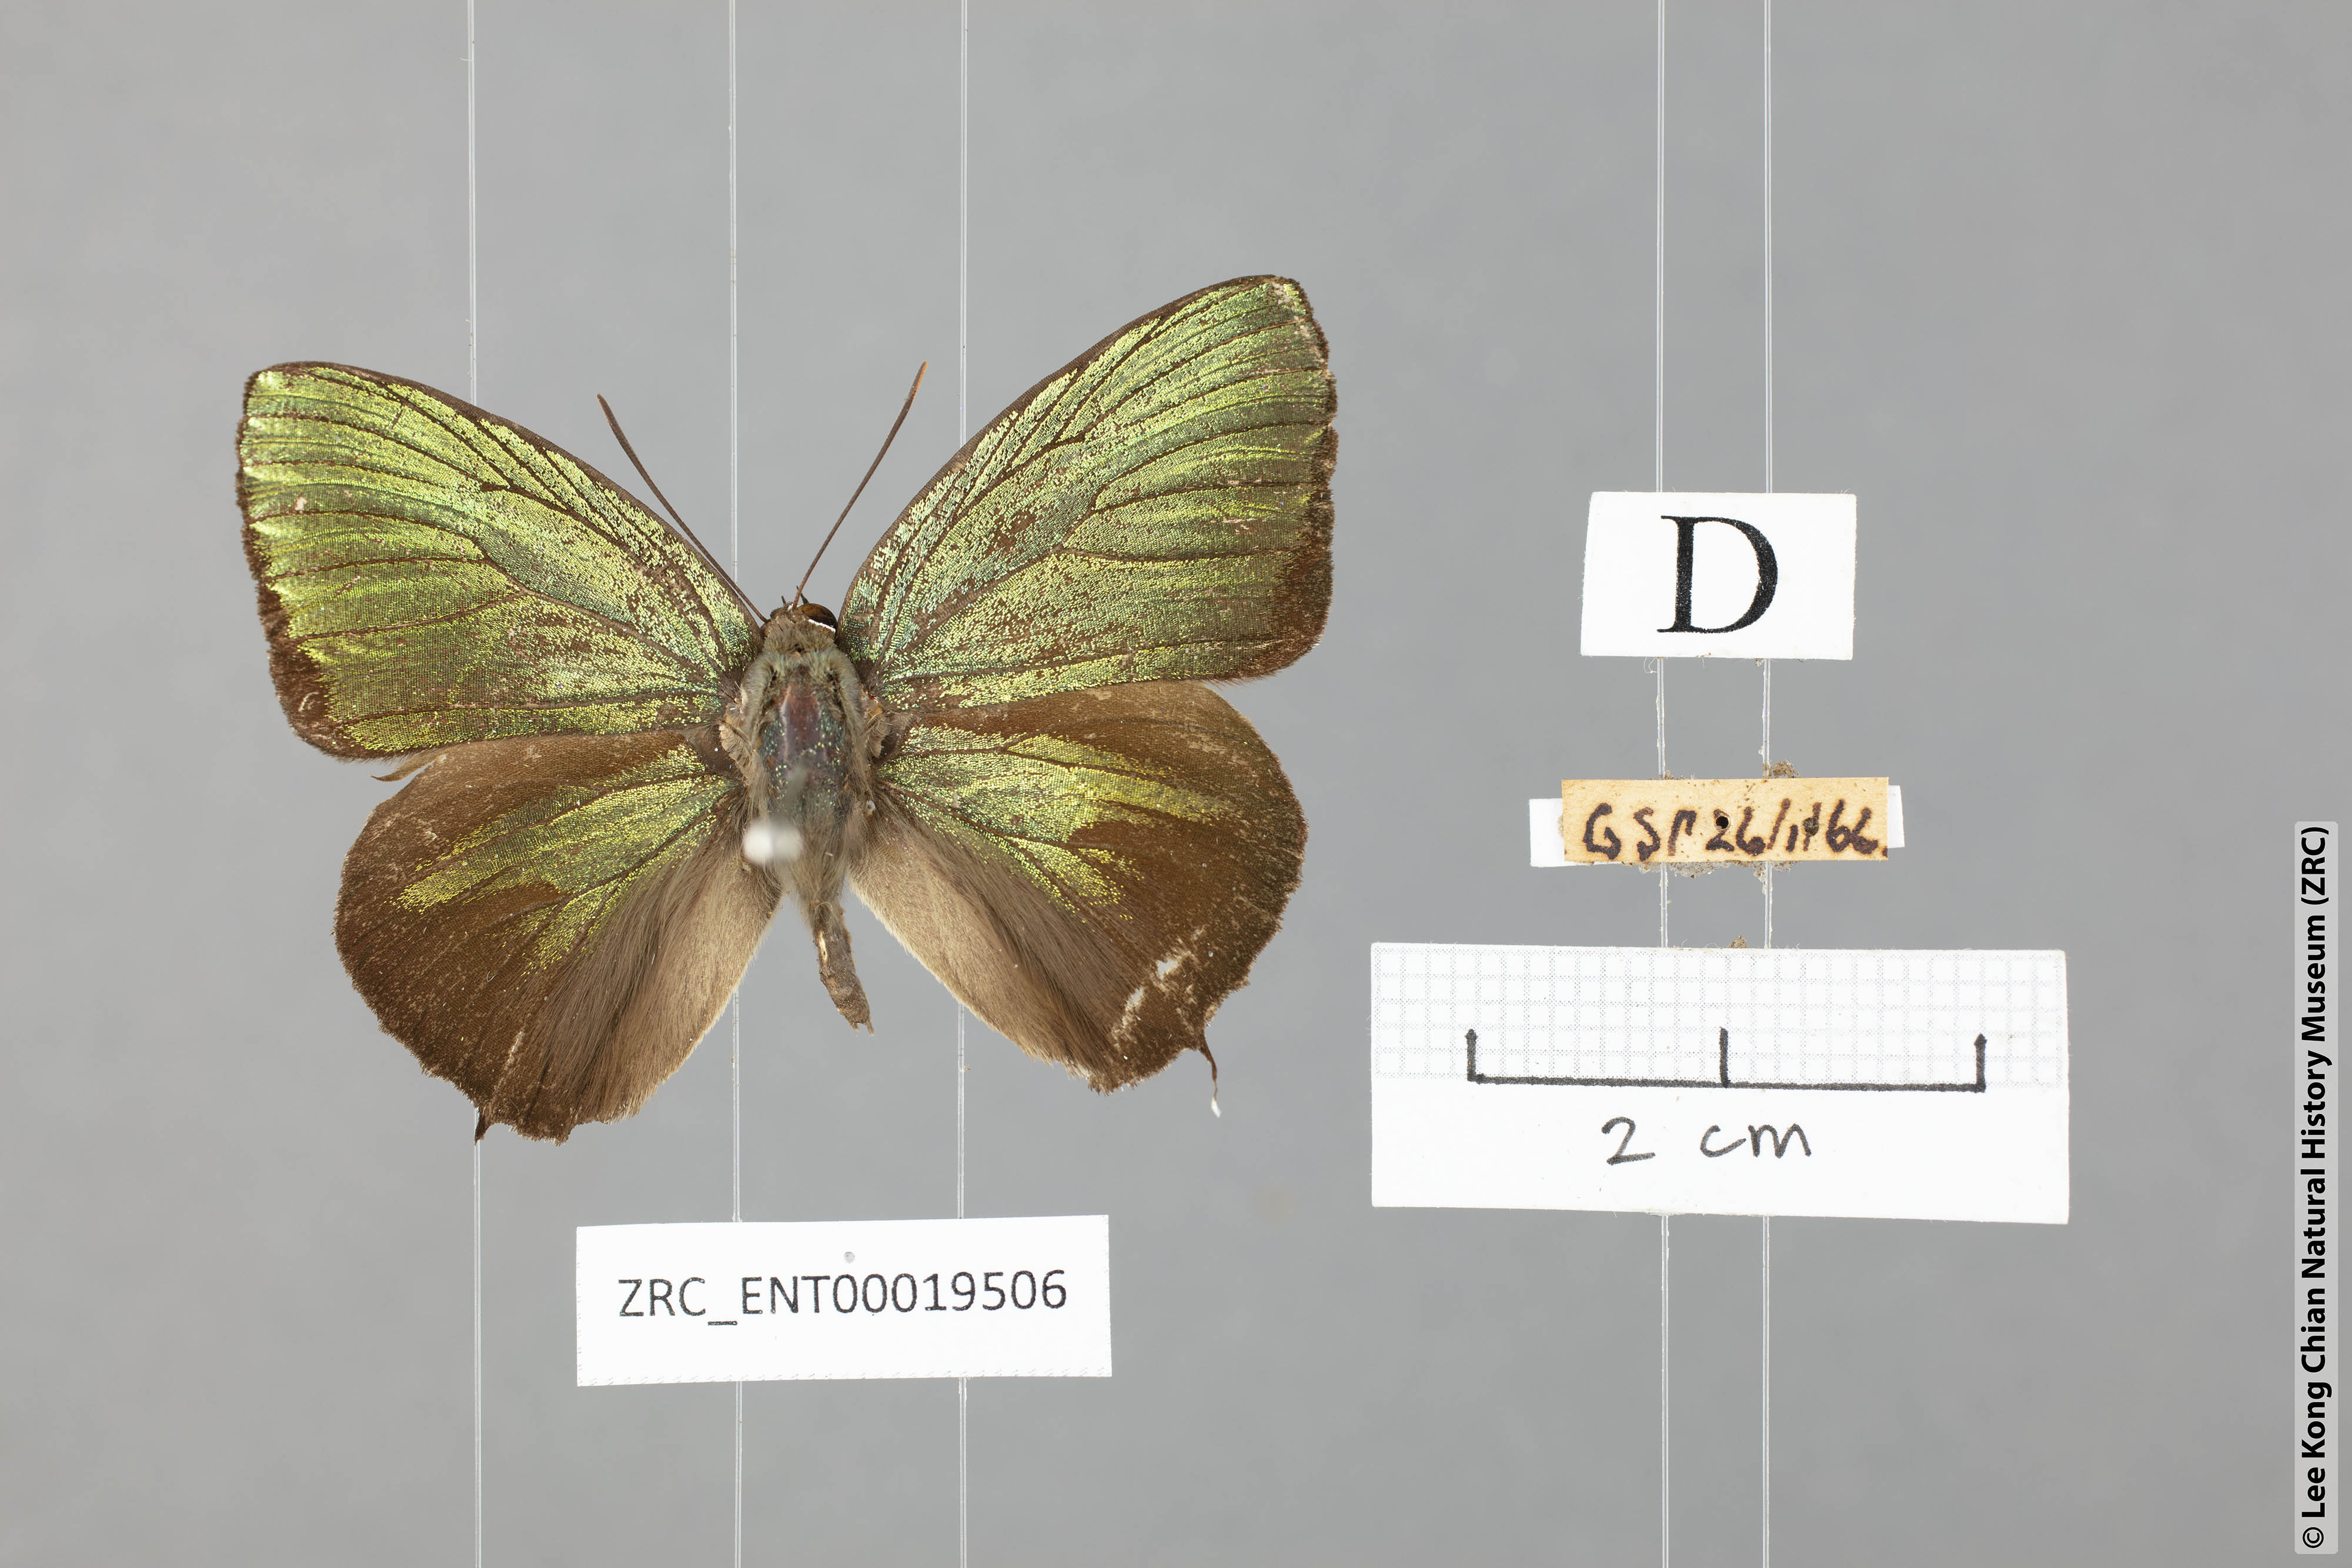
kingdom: Animalia
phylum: Arthropoda
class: Insecta
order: Lepidoptera
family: Lycaenidae
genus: Arhopala
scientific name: Arhopala hellenore
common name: Doherty's green oakblue
